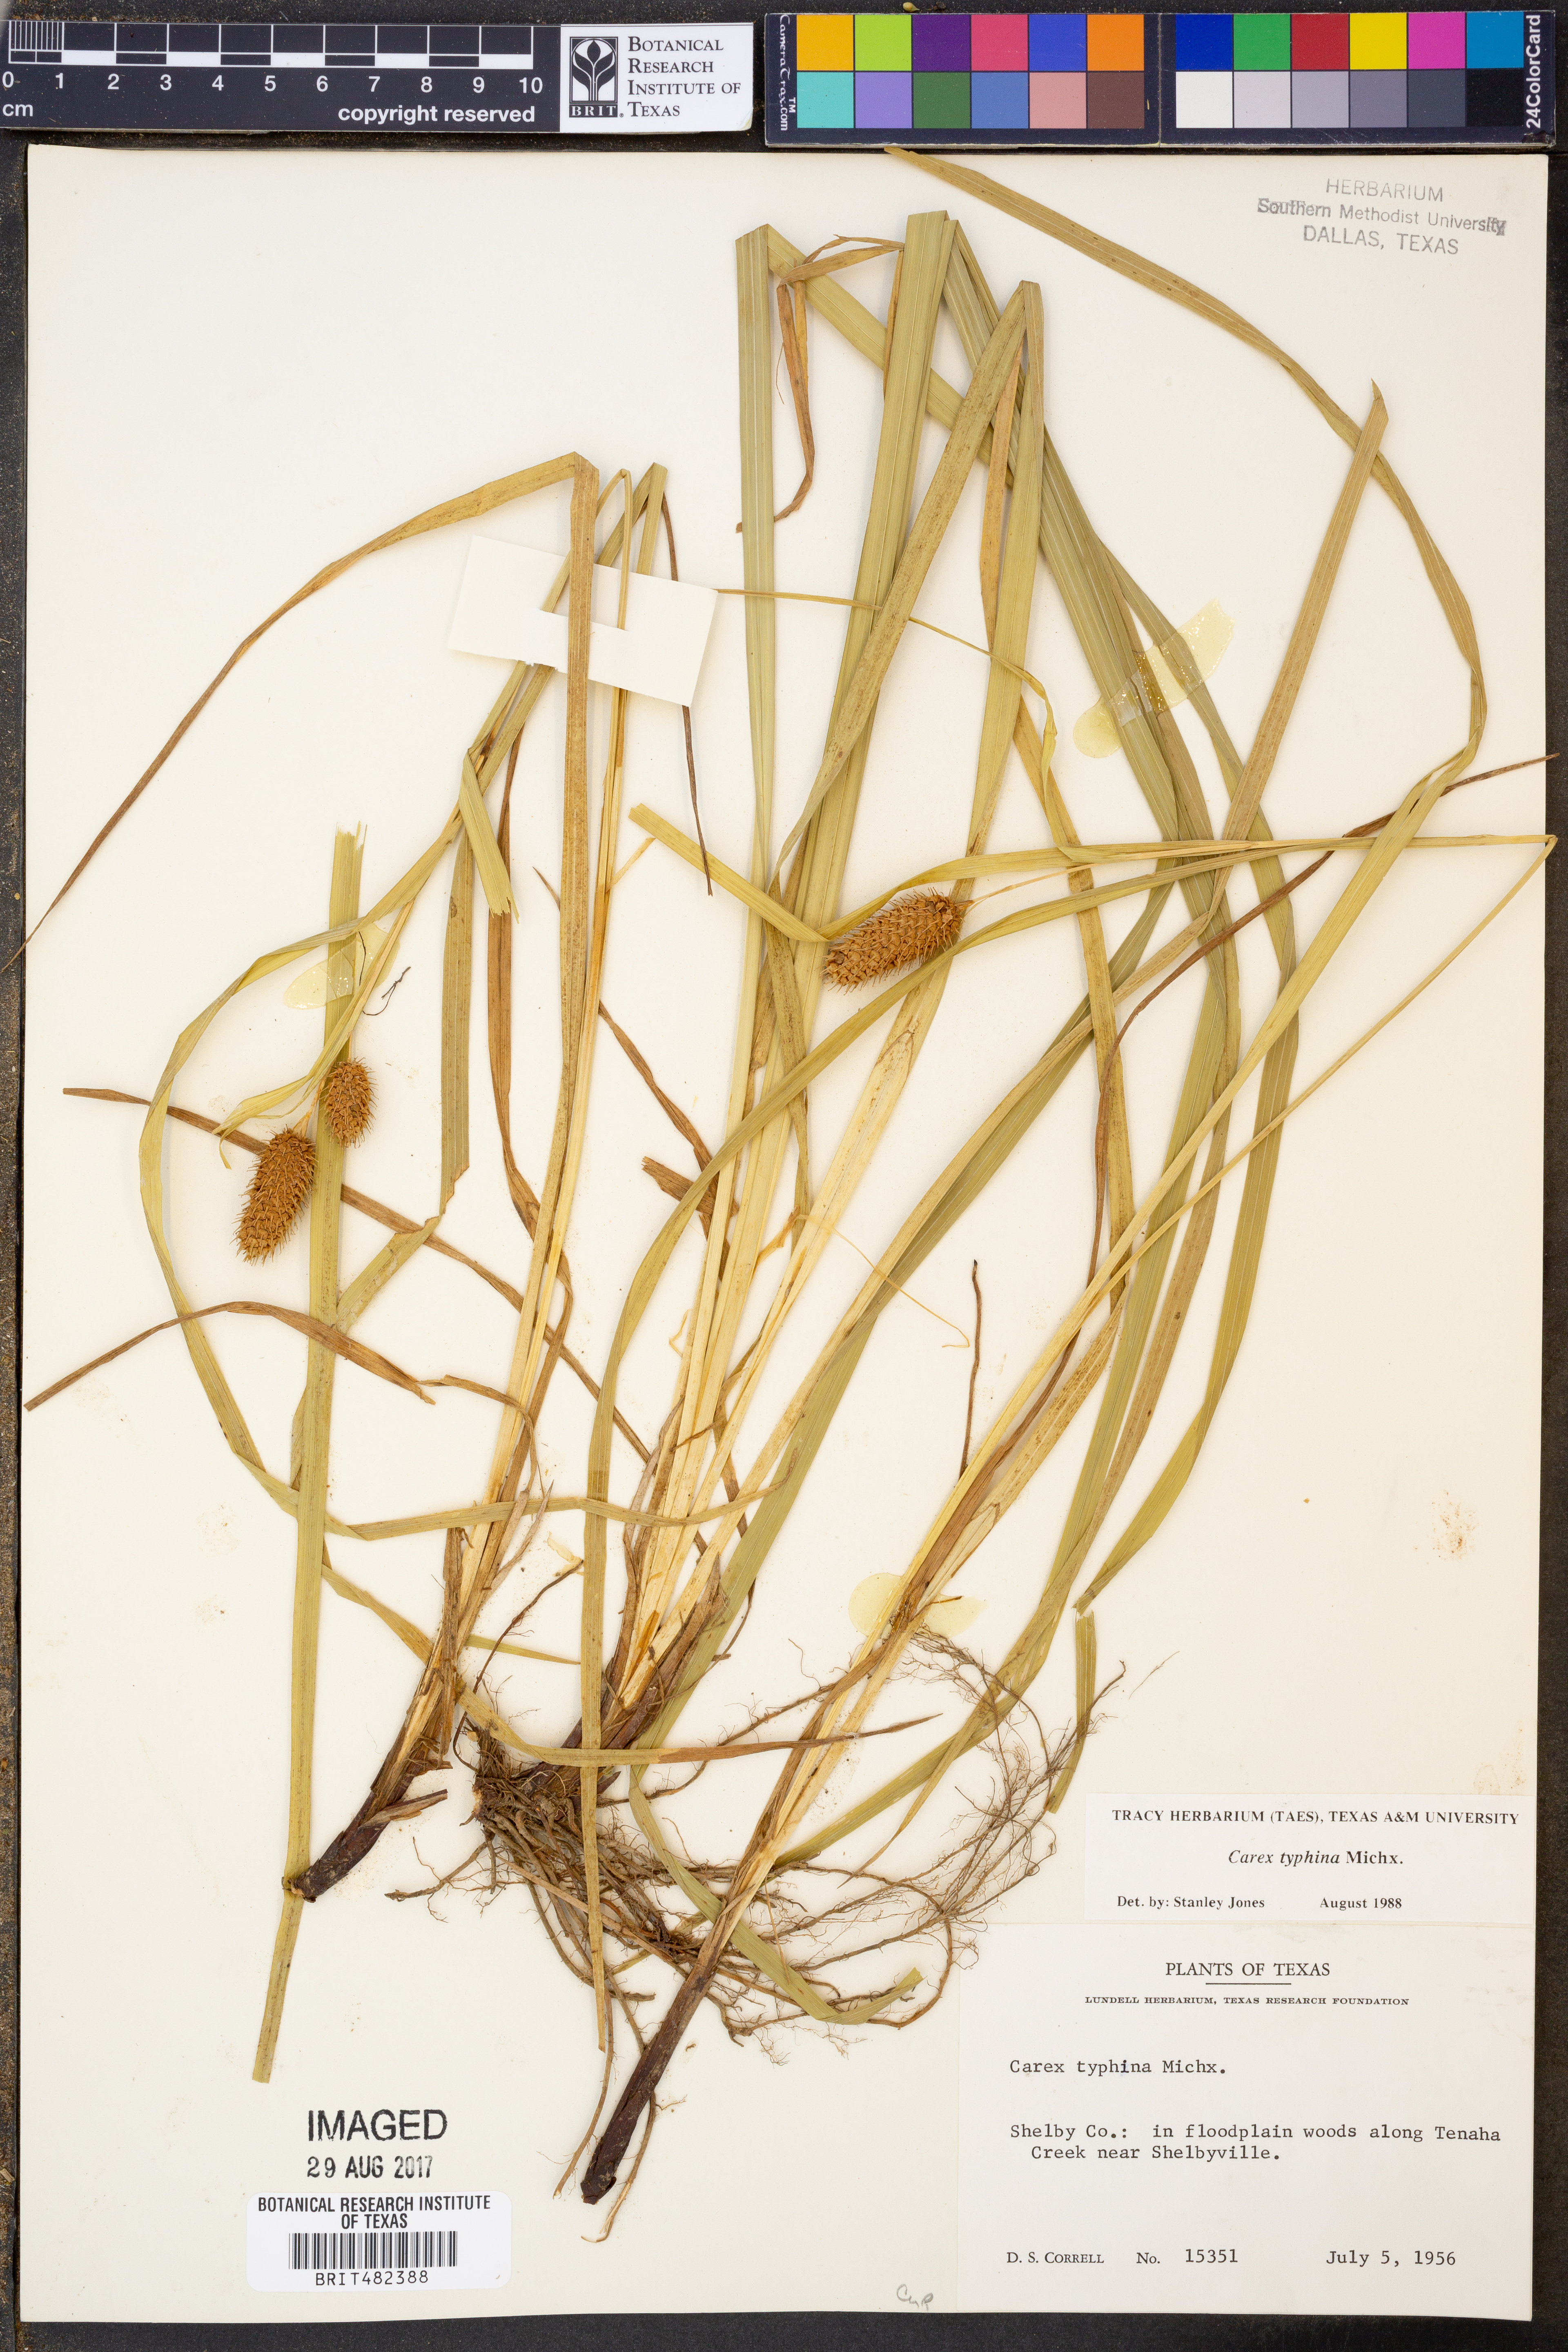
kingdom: Plantae
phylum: Tracheophyta
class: Liliopsida
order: Poales
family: Cyperaceae
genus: Carex
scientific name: Carex typhina
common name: Cattail sedge
